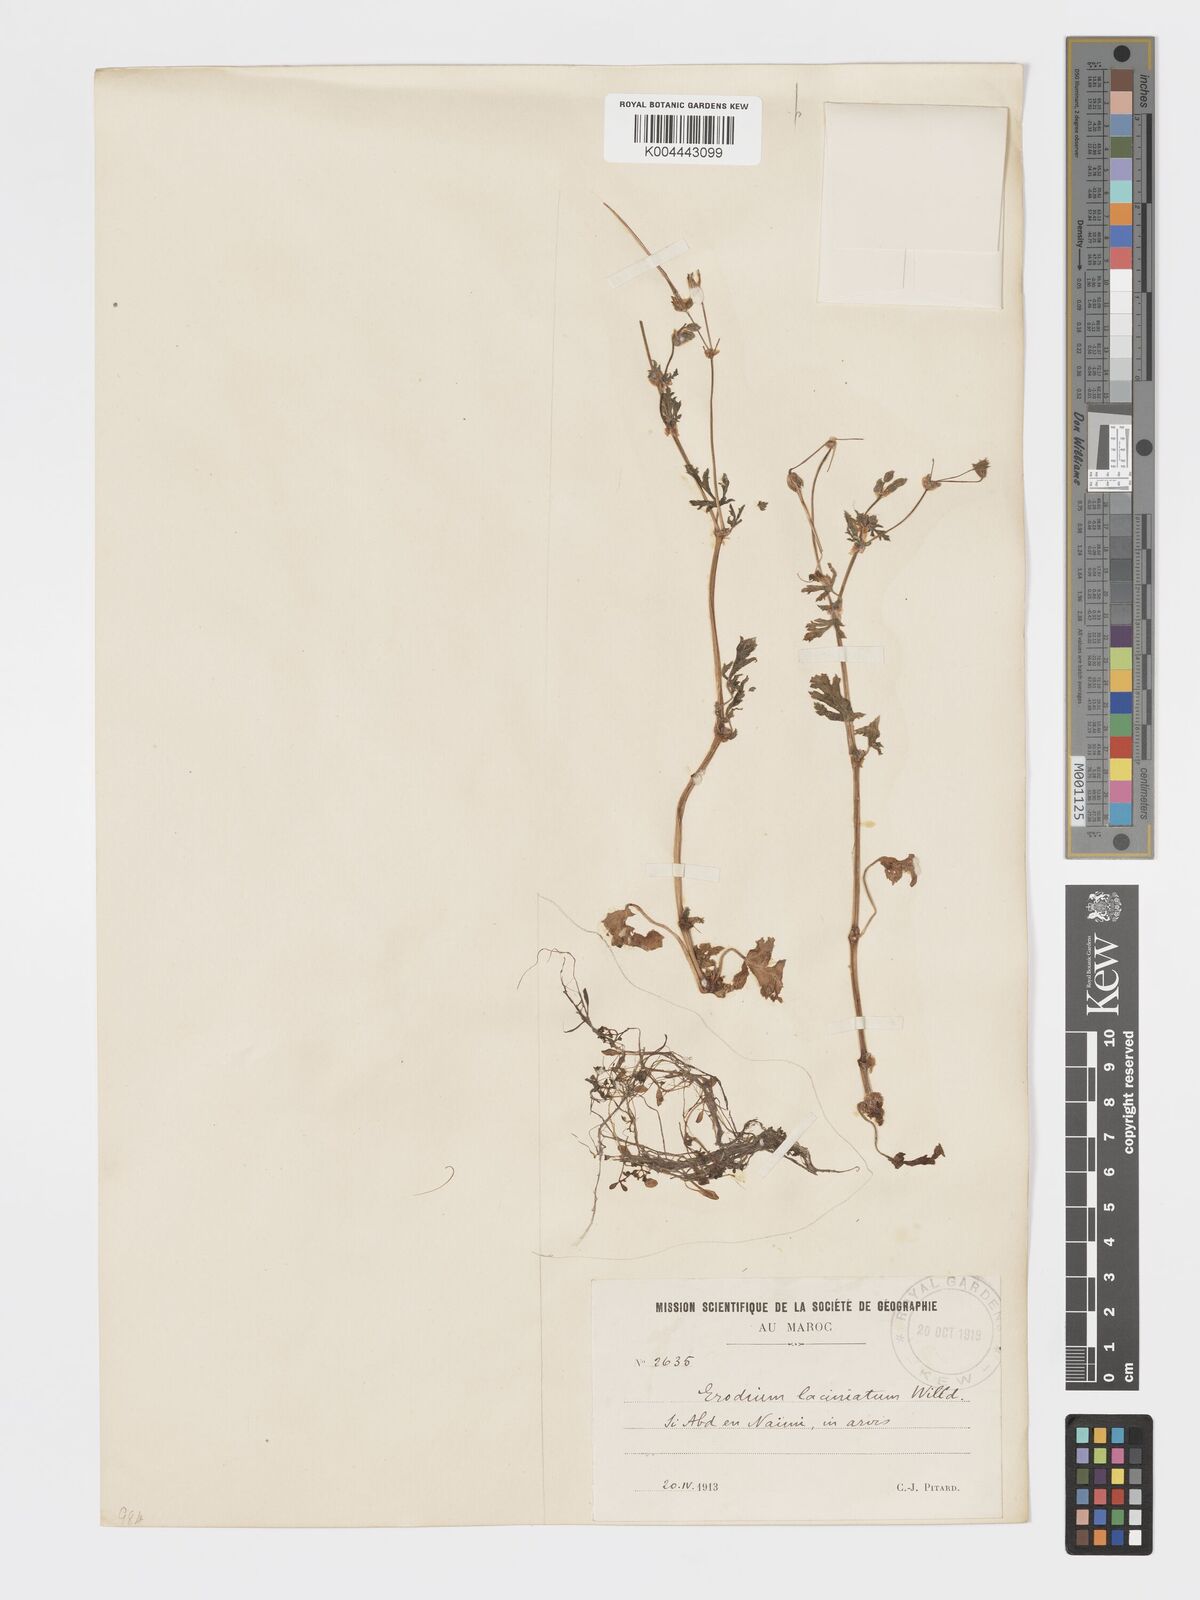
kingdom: Plantae
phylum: Tracheophyta
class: Magnoliopsida
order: Geraniales
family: Geraniaceae
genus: Erodium
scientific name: Erodium laciniatum
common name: Cutleaf stork's bill
